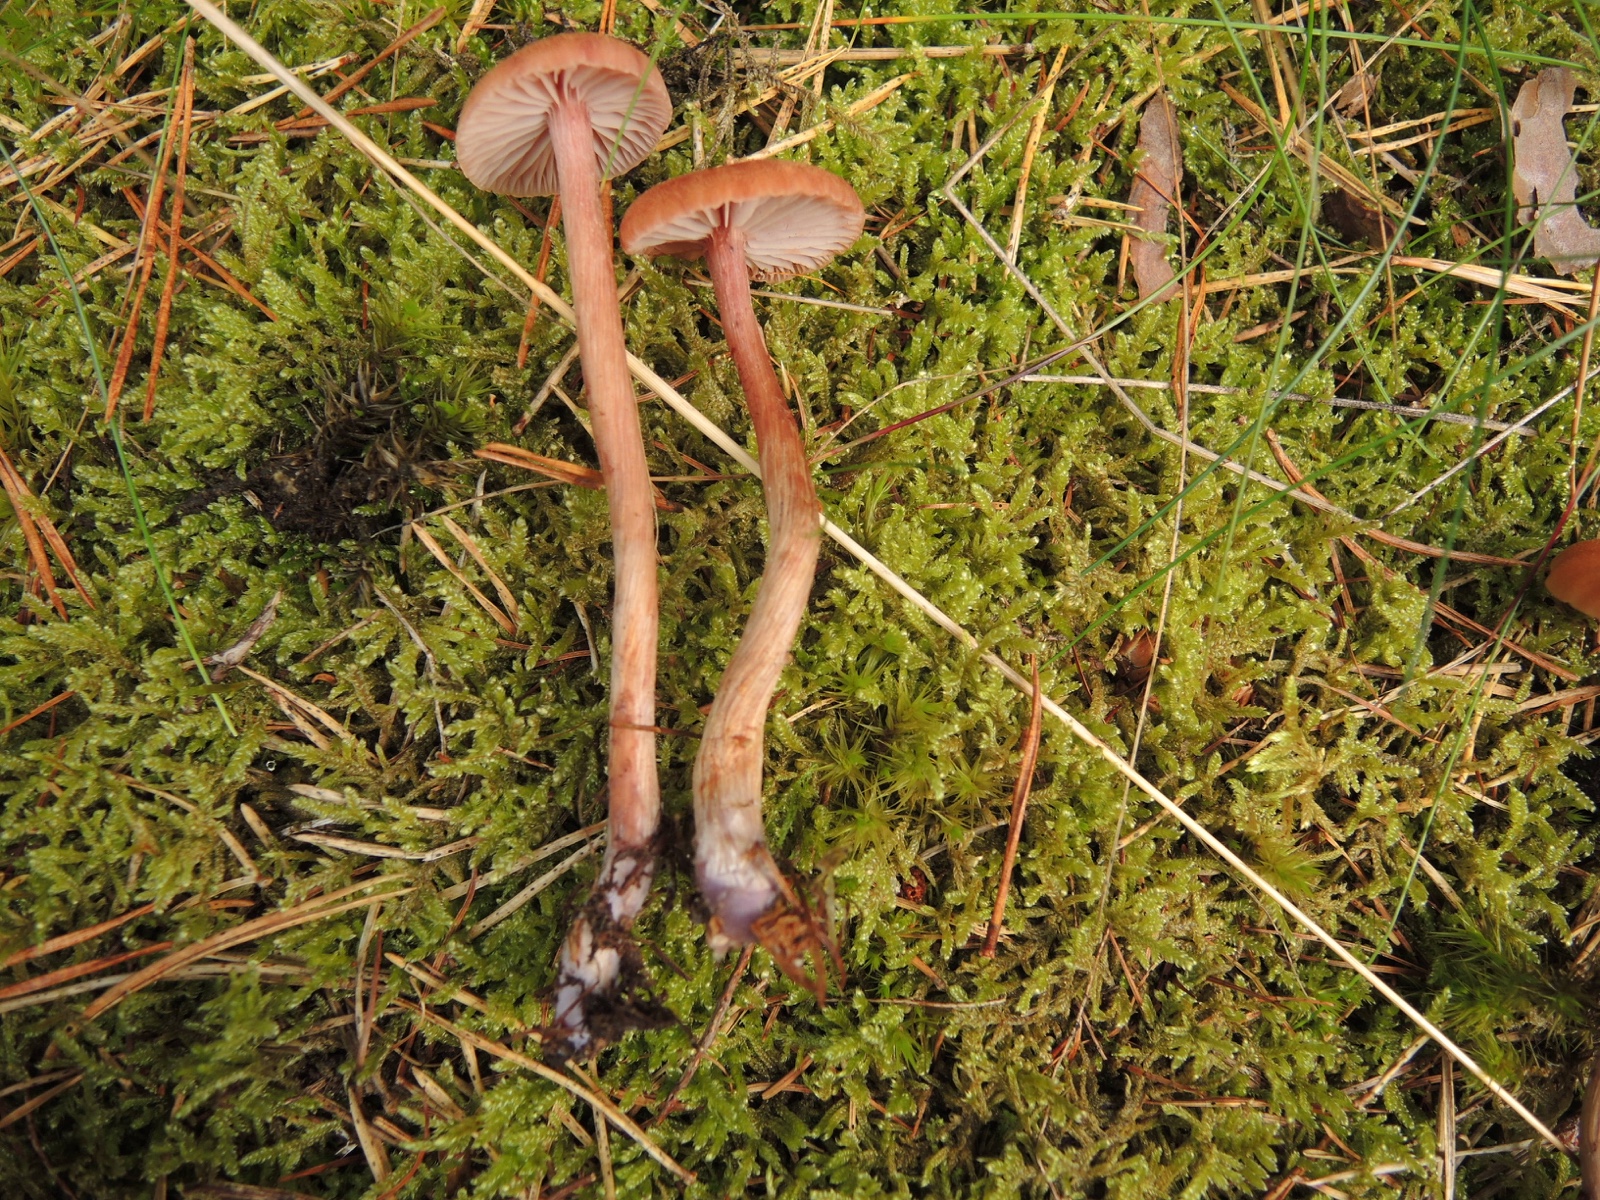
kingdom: Fungi
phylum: Basidiomycota
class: Agaricomycetes
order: Agaricales
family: Hydnangiaceae
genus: Laccaria
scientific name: Laccaria bicolor
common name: tvefarvet ametysthat
